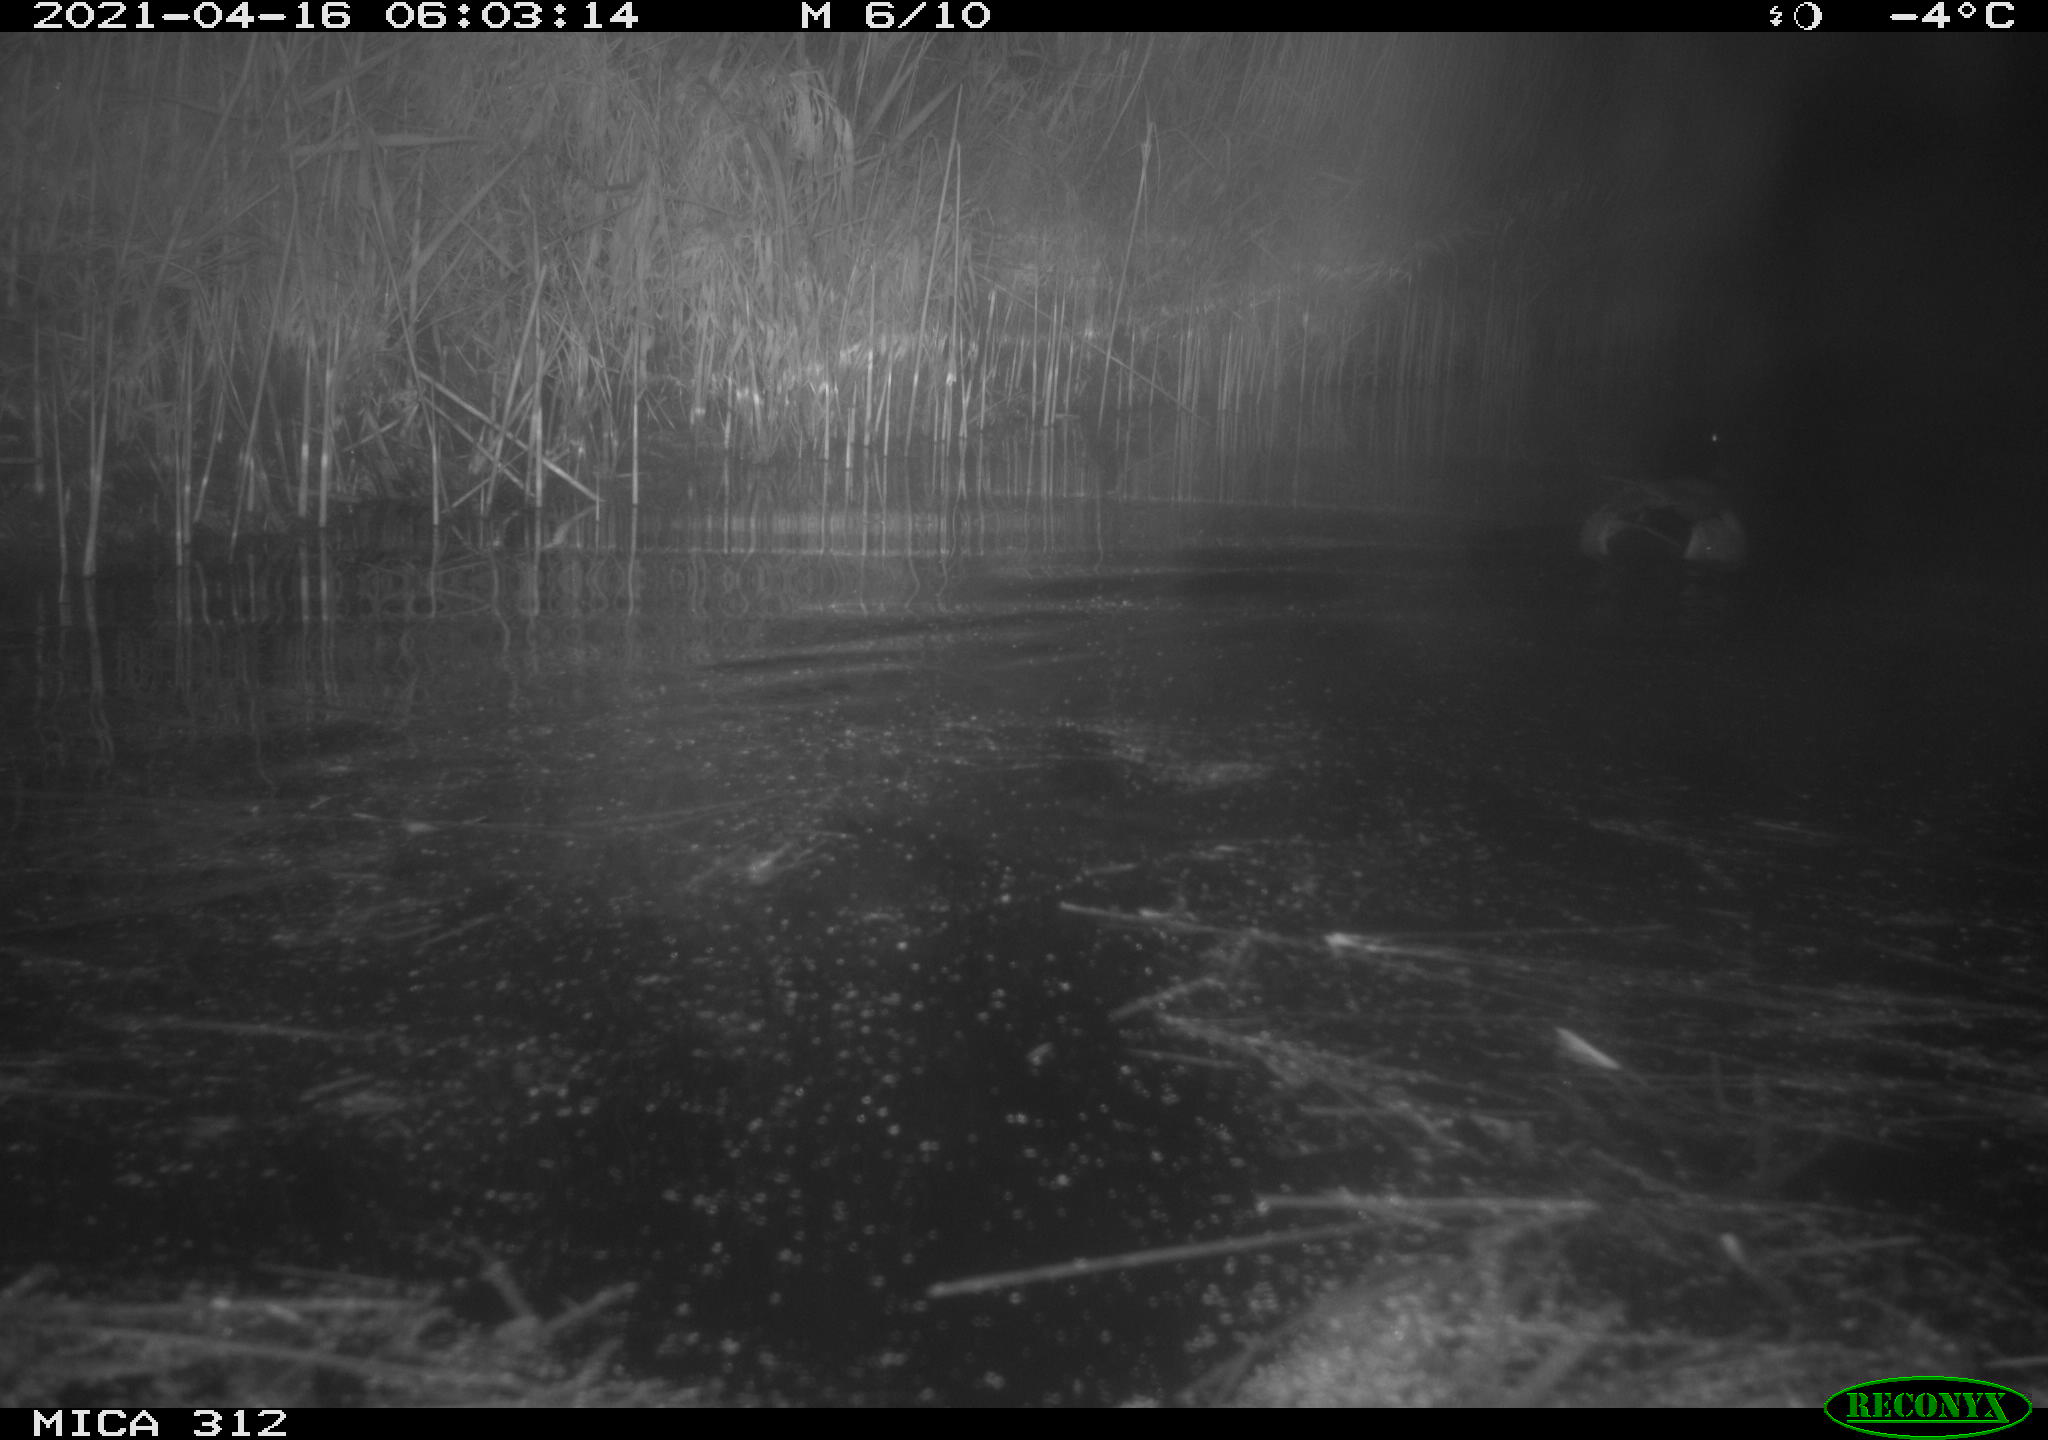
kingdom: Animalia
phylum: Chordata
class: Aves
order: Anseriformes
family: Anatidae
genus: Anas
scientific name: Anas platyrhynchos
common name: Mallard
